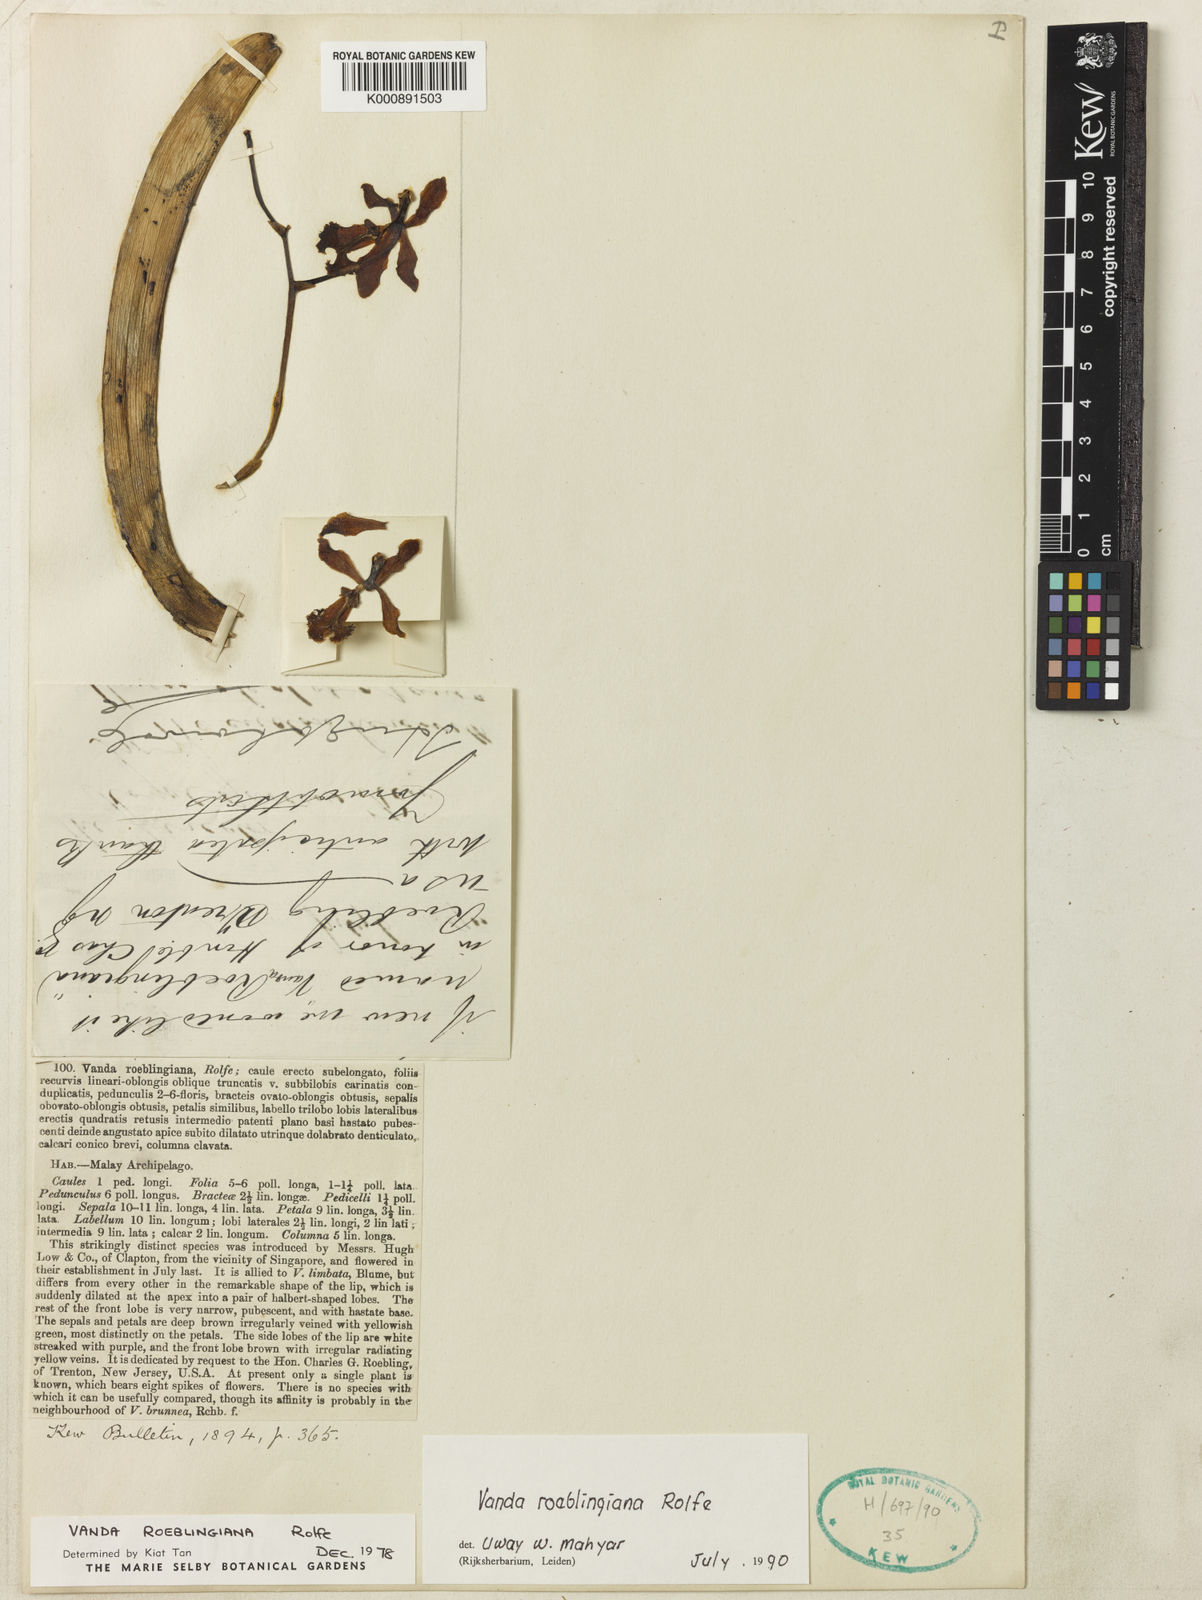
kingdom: Plantae
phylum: Tracheophyta
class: Liliopsida
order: Asparagales
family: Orchidaceae
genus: Vanda
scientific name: Vanda roeblingiana
